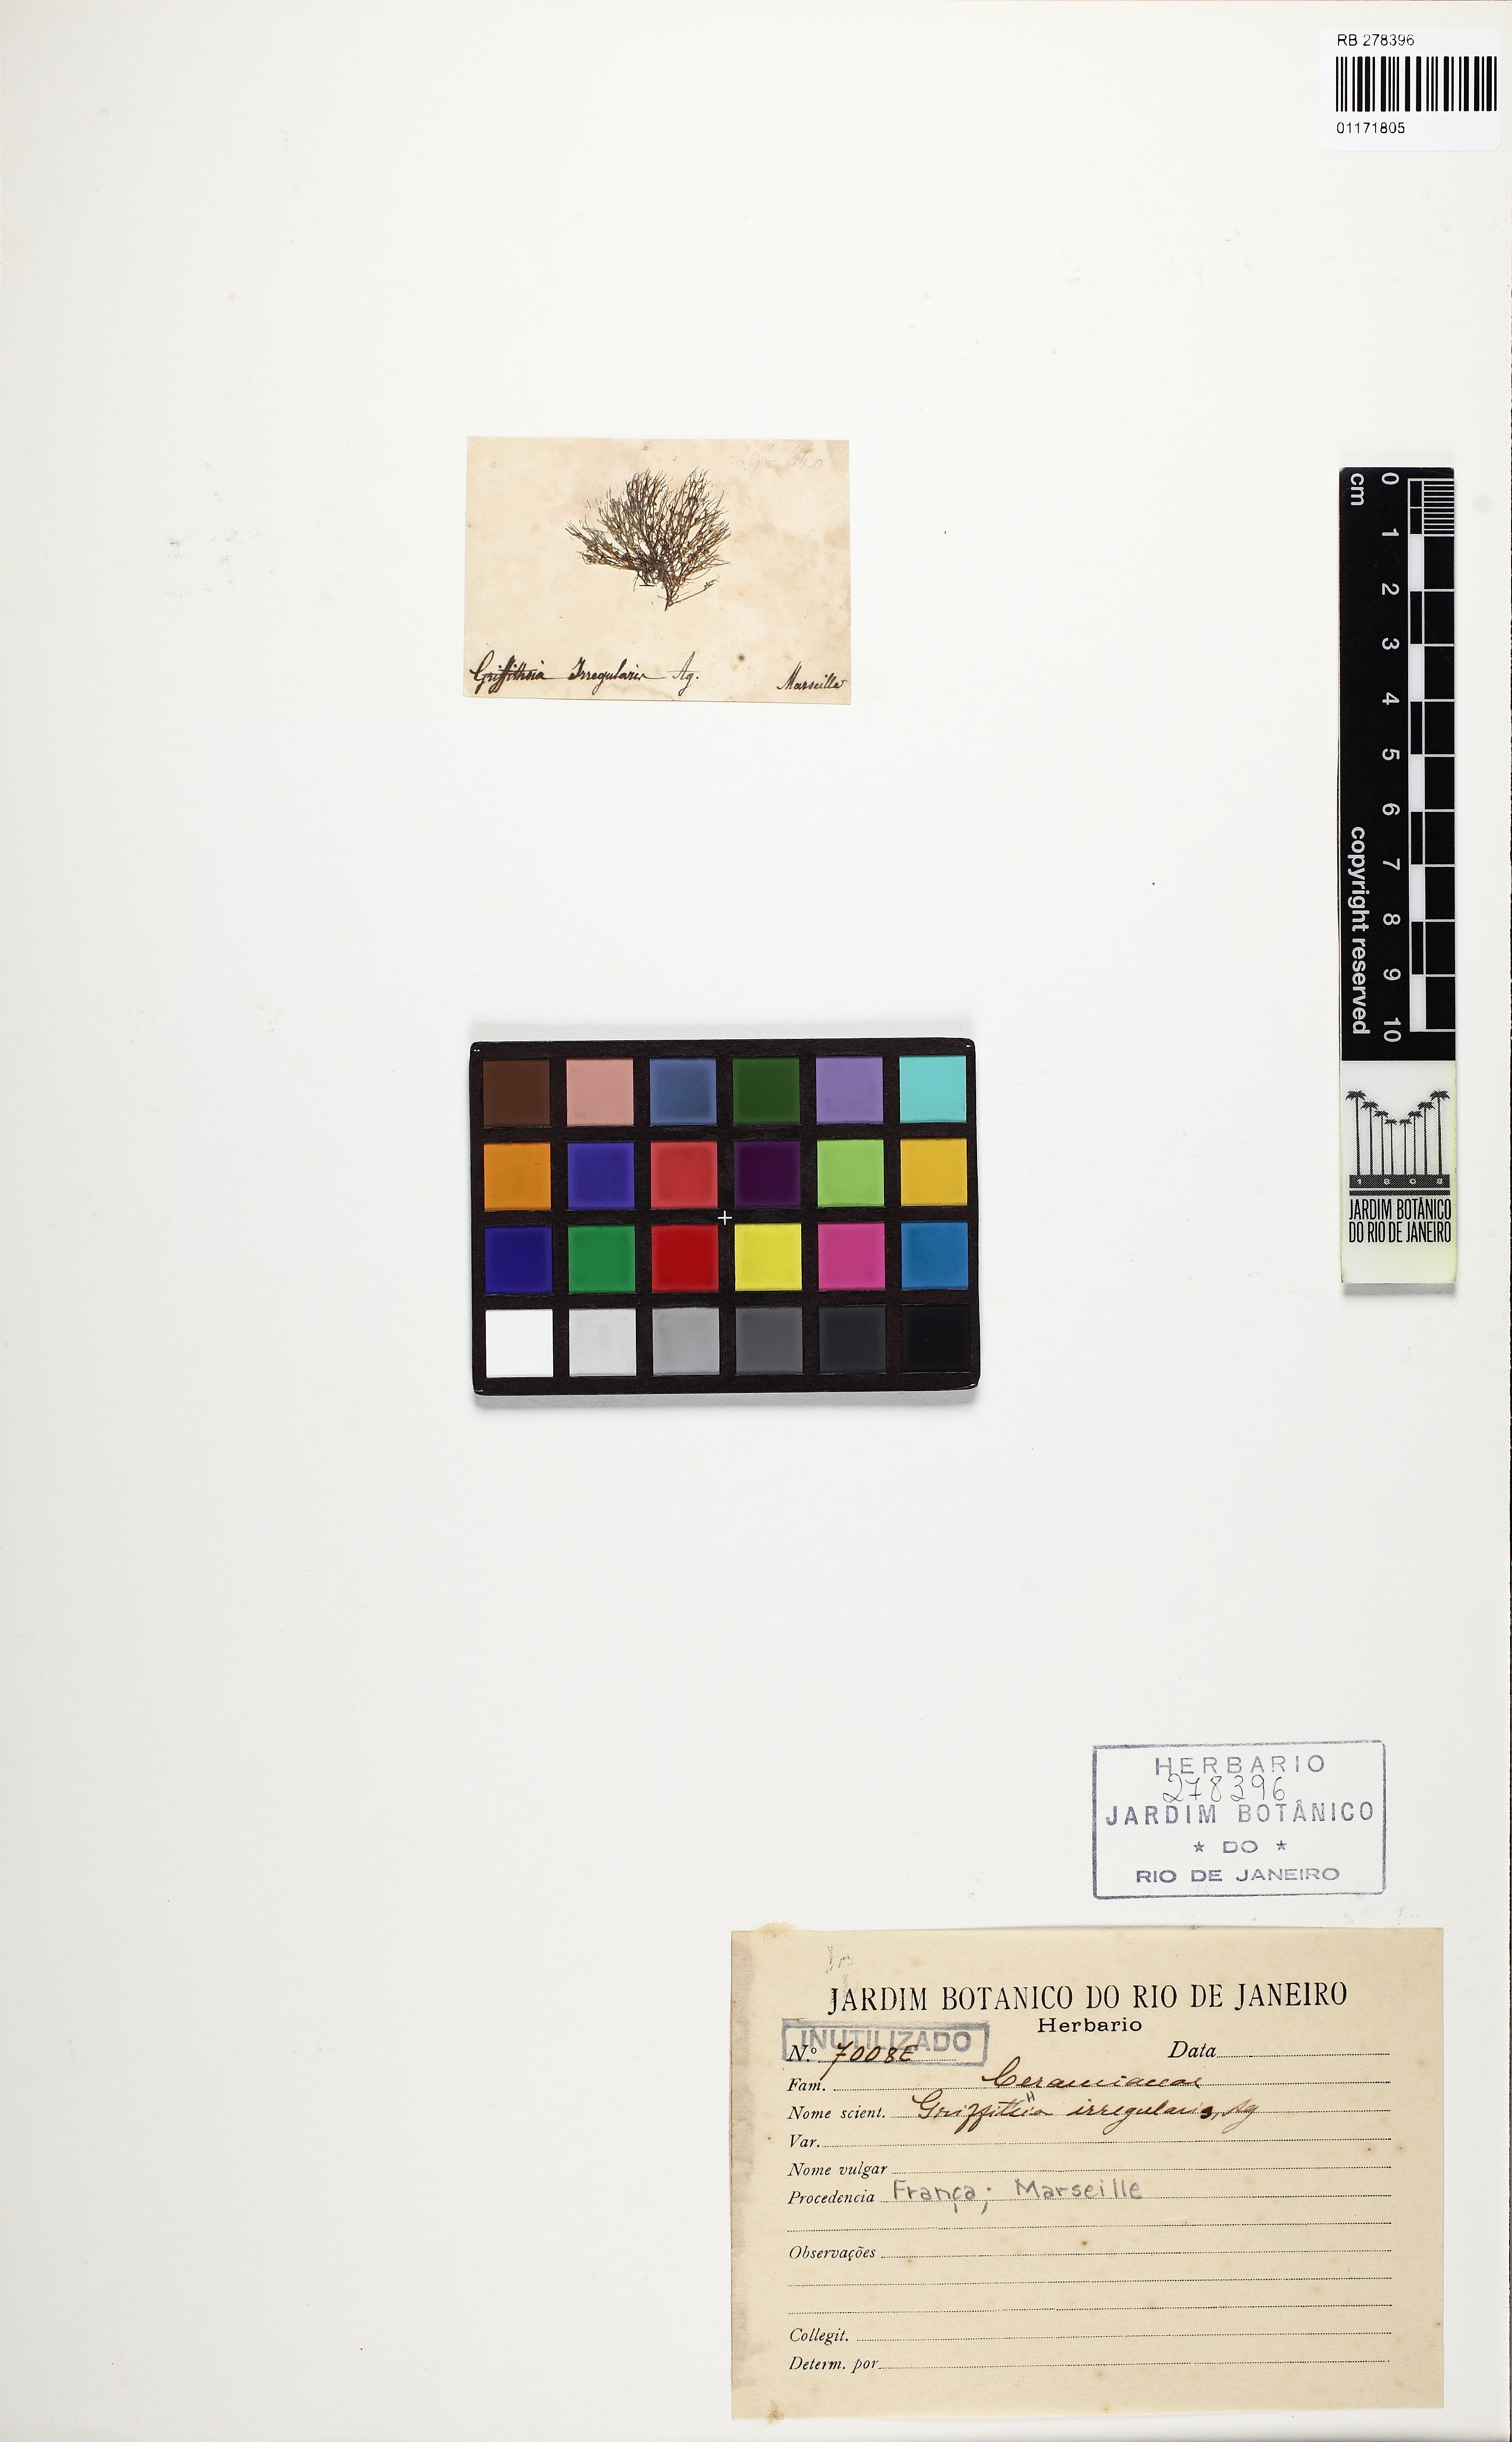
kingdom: Plantae
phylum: Rhodophyta
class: Florideophyceae
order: Ceramiales
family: Wrangeliaceae
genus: Halurus
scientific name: Halurus flosculosus
